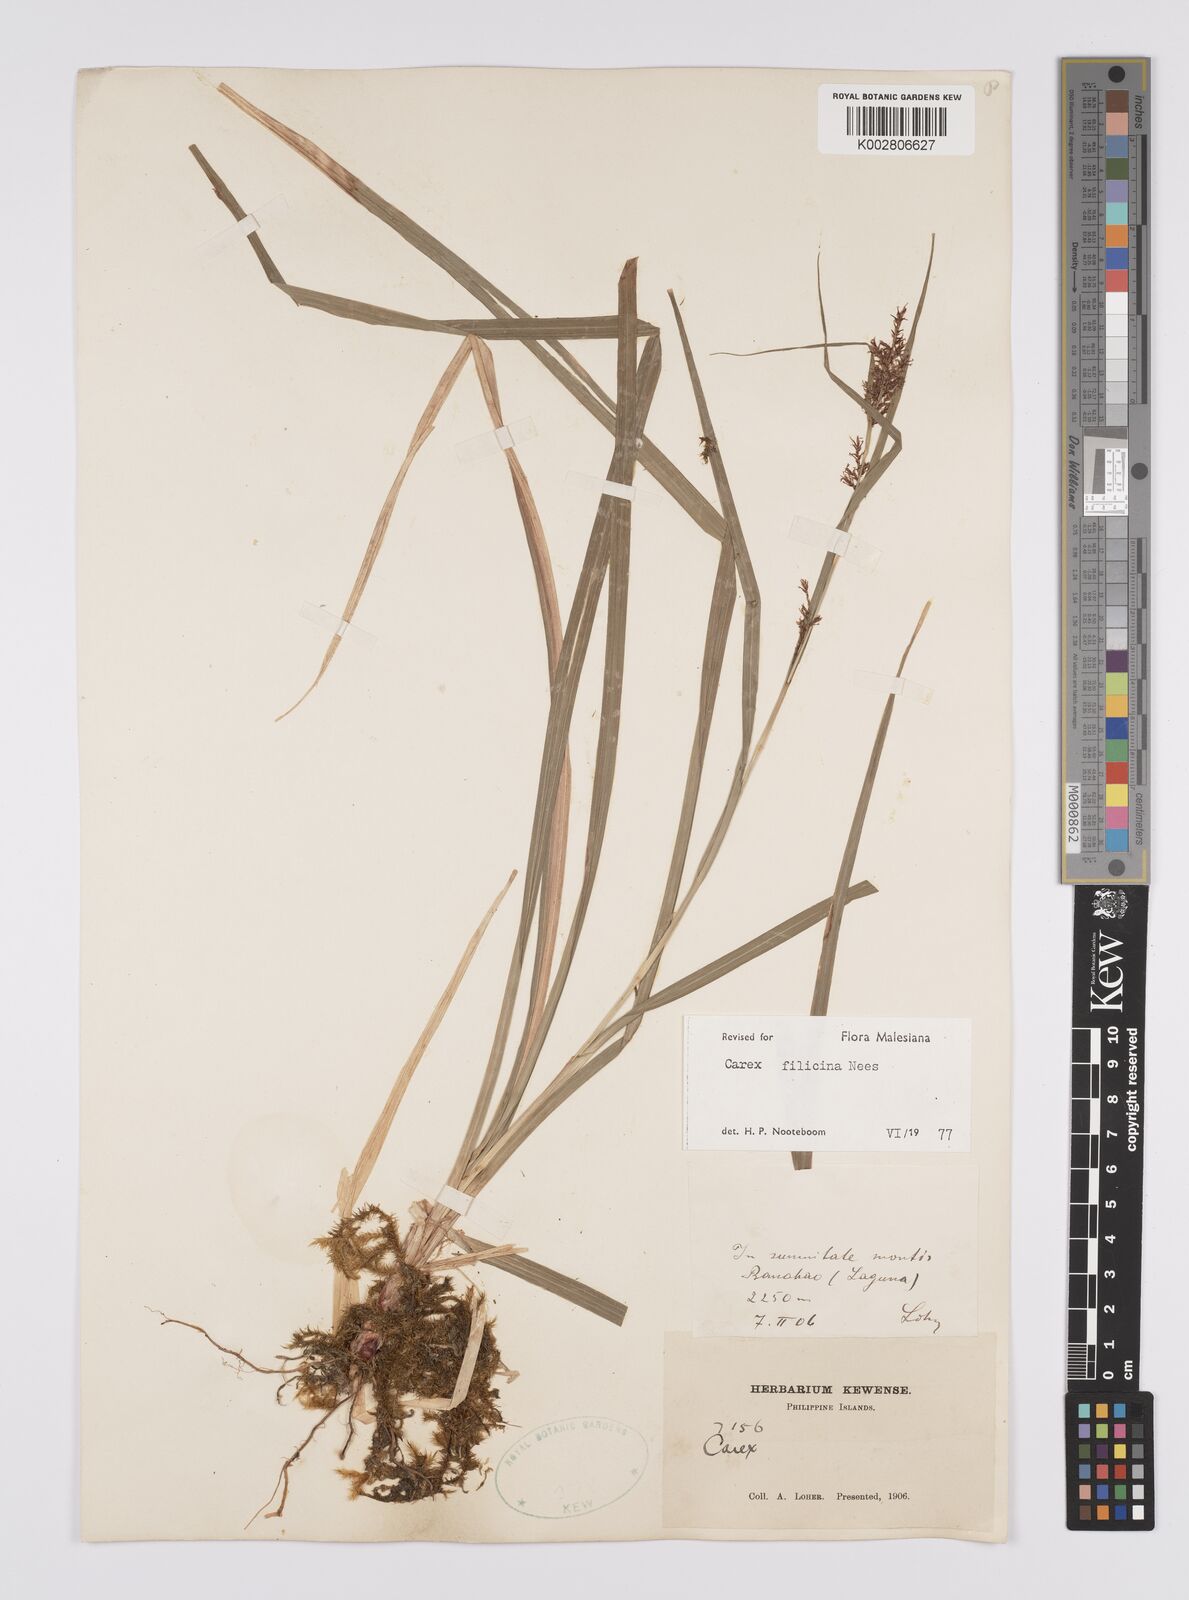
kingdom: Plantae
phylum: Tracheophyta
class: Liliopsida
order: Poales
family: Cyperaceae
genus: Carex
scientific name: Carex filicina
